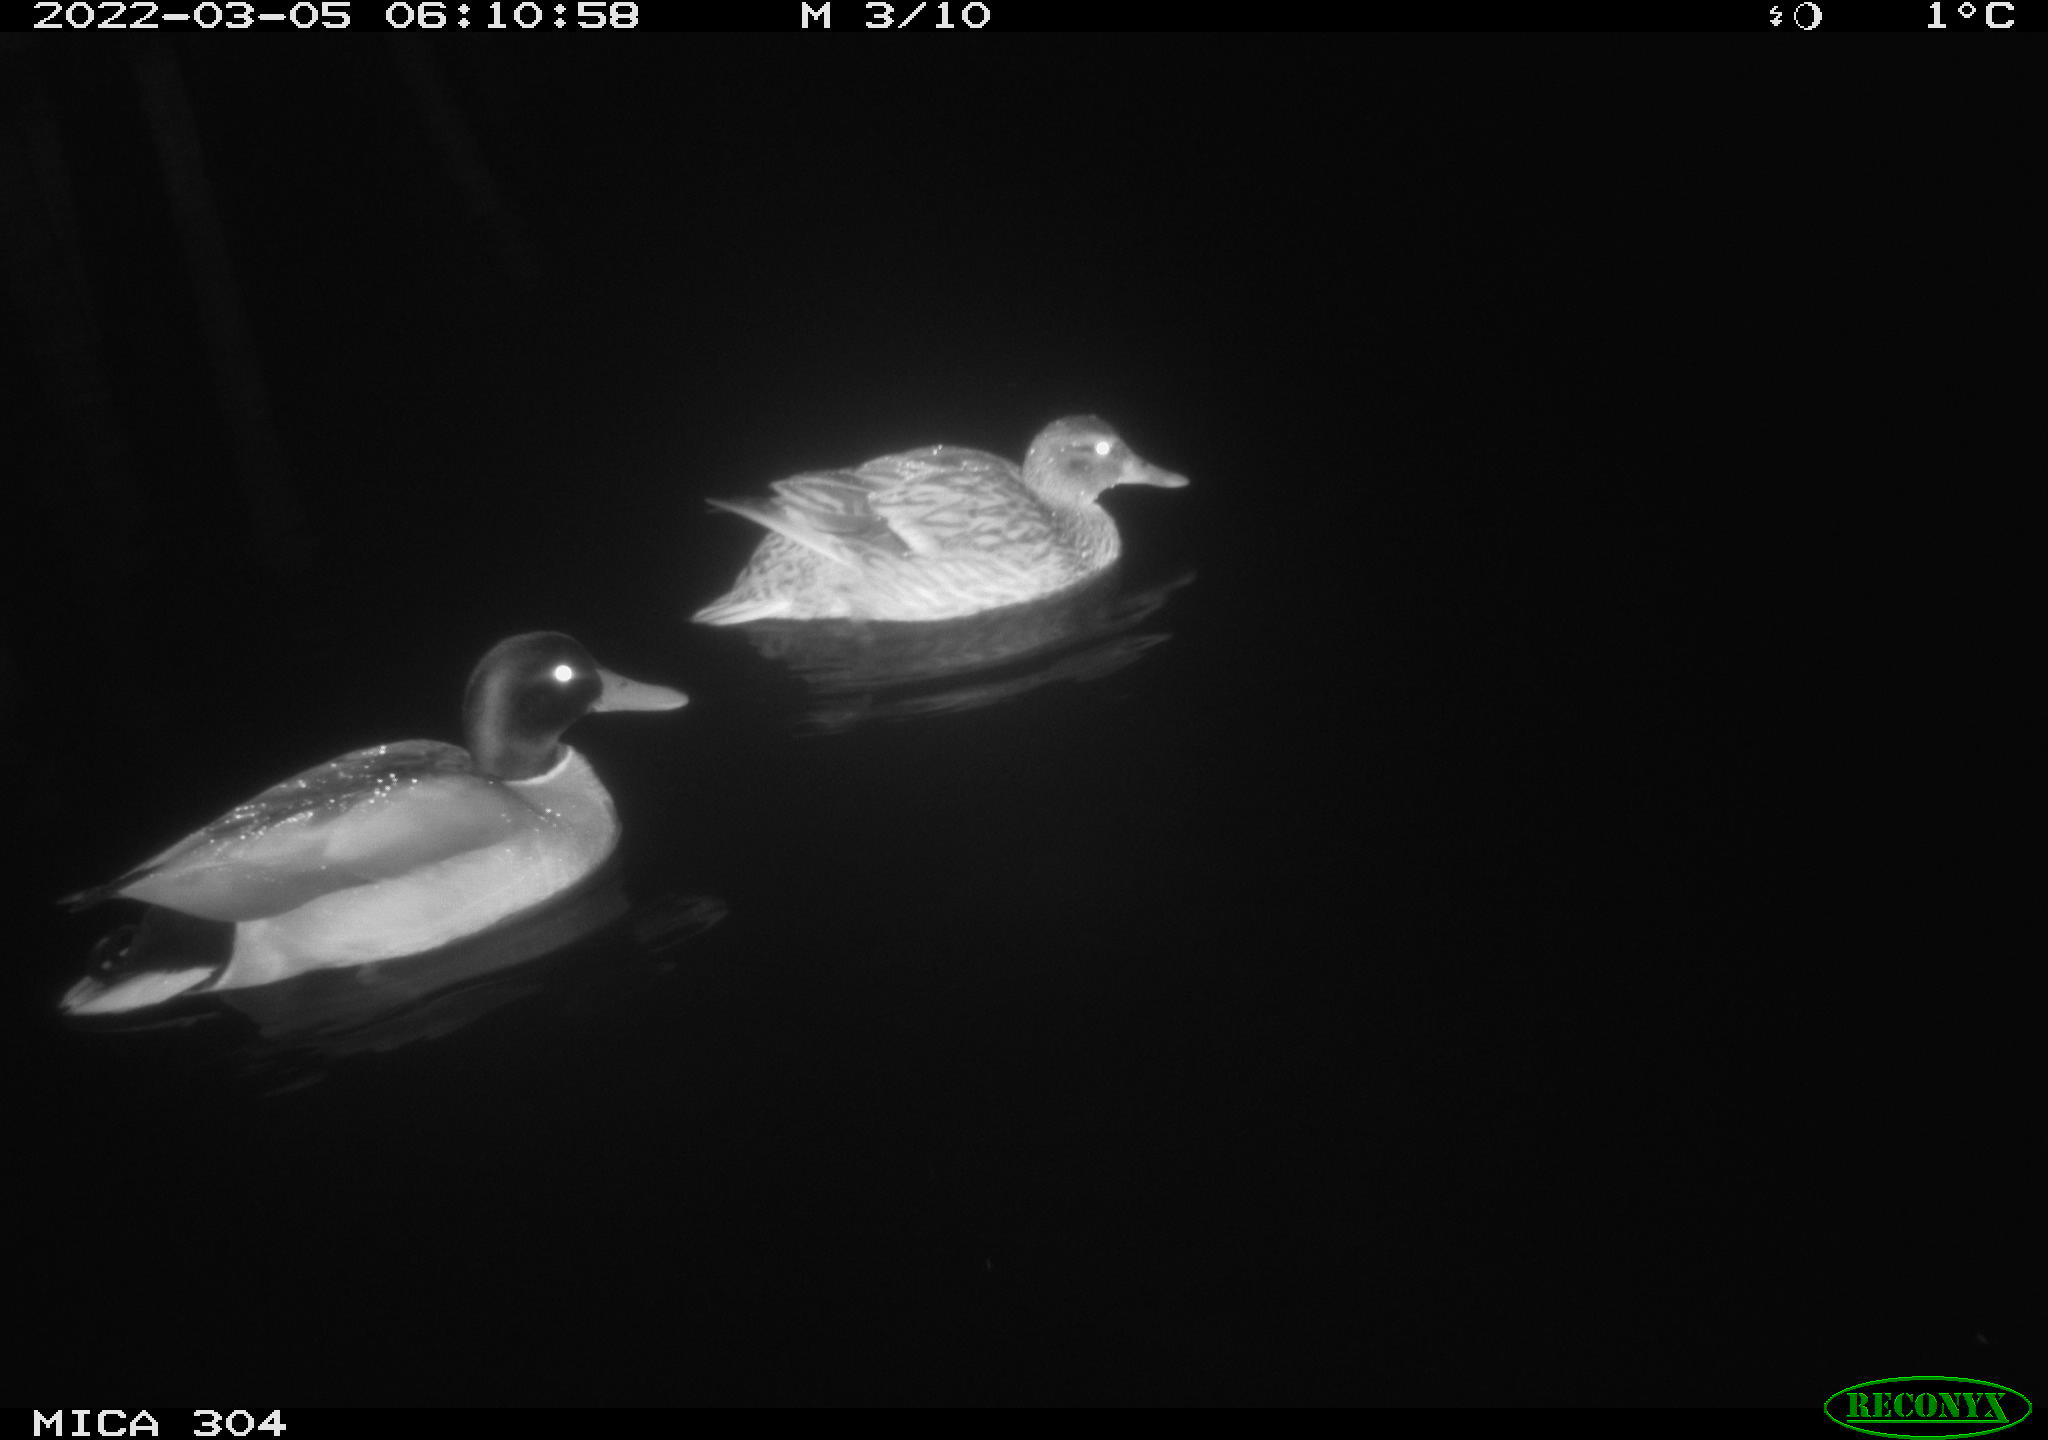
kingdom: Animalia
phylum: Chordata
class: Aves
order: Anseriformes
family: Anatidae
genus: Anas
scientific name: Anas platyrhynchos
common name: Mallard
